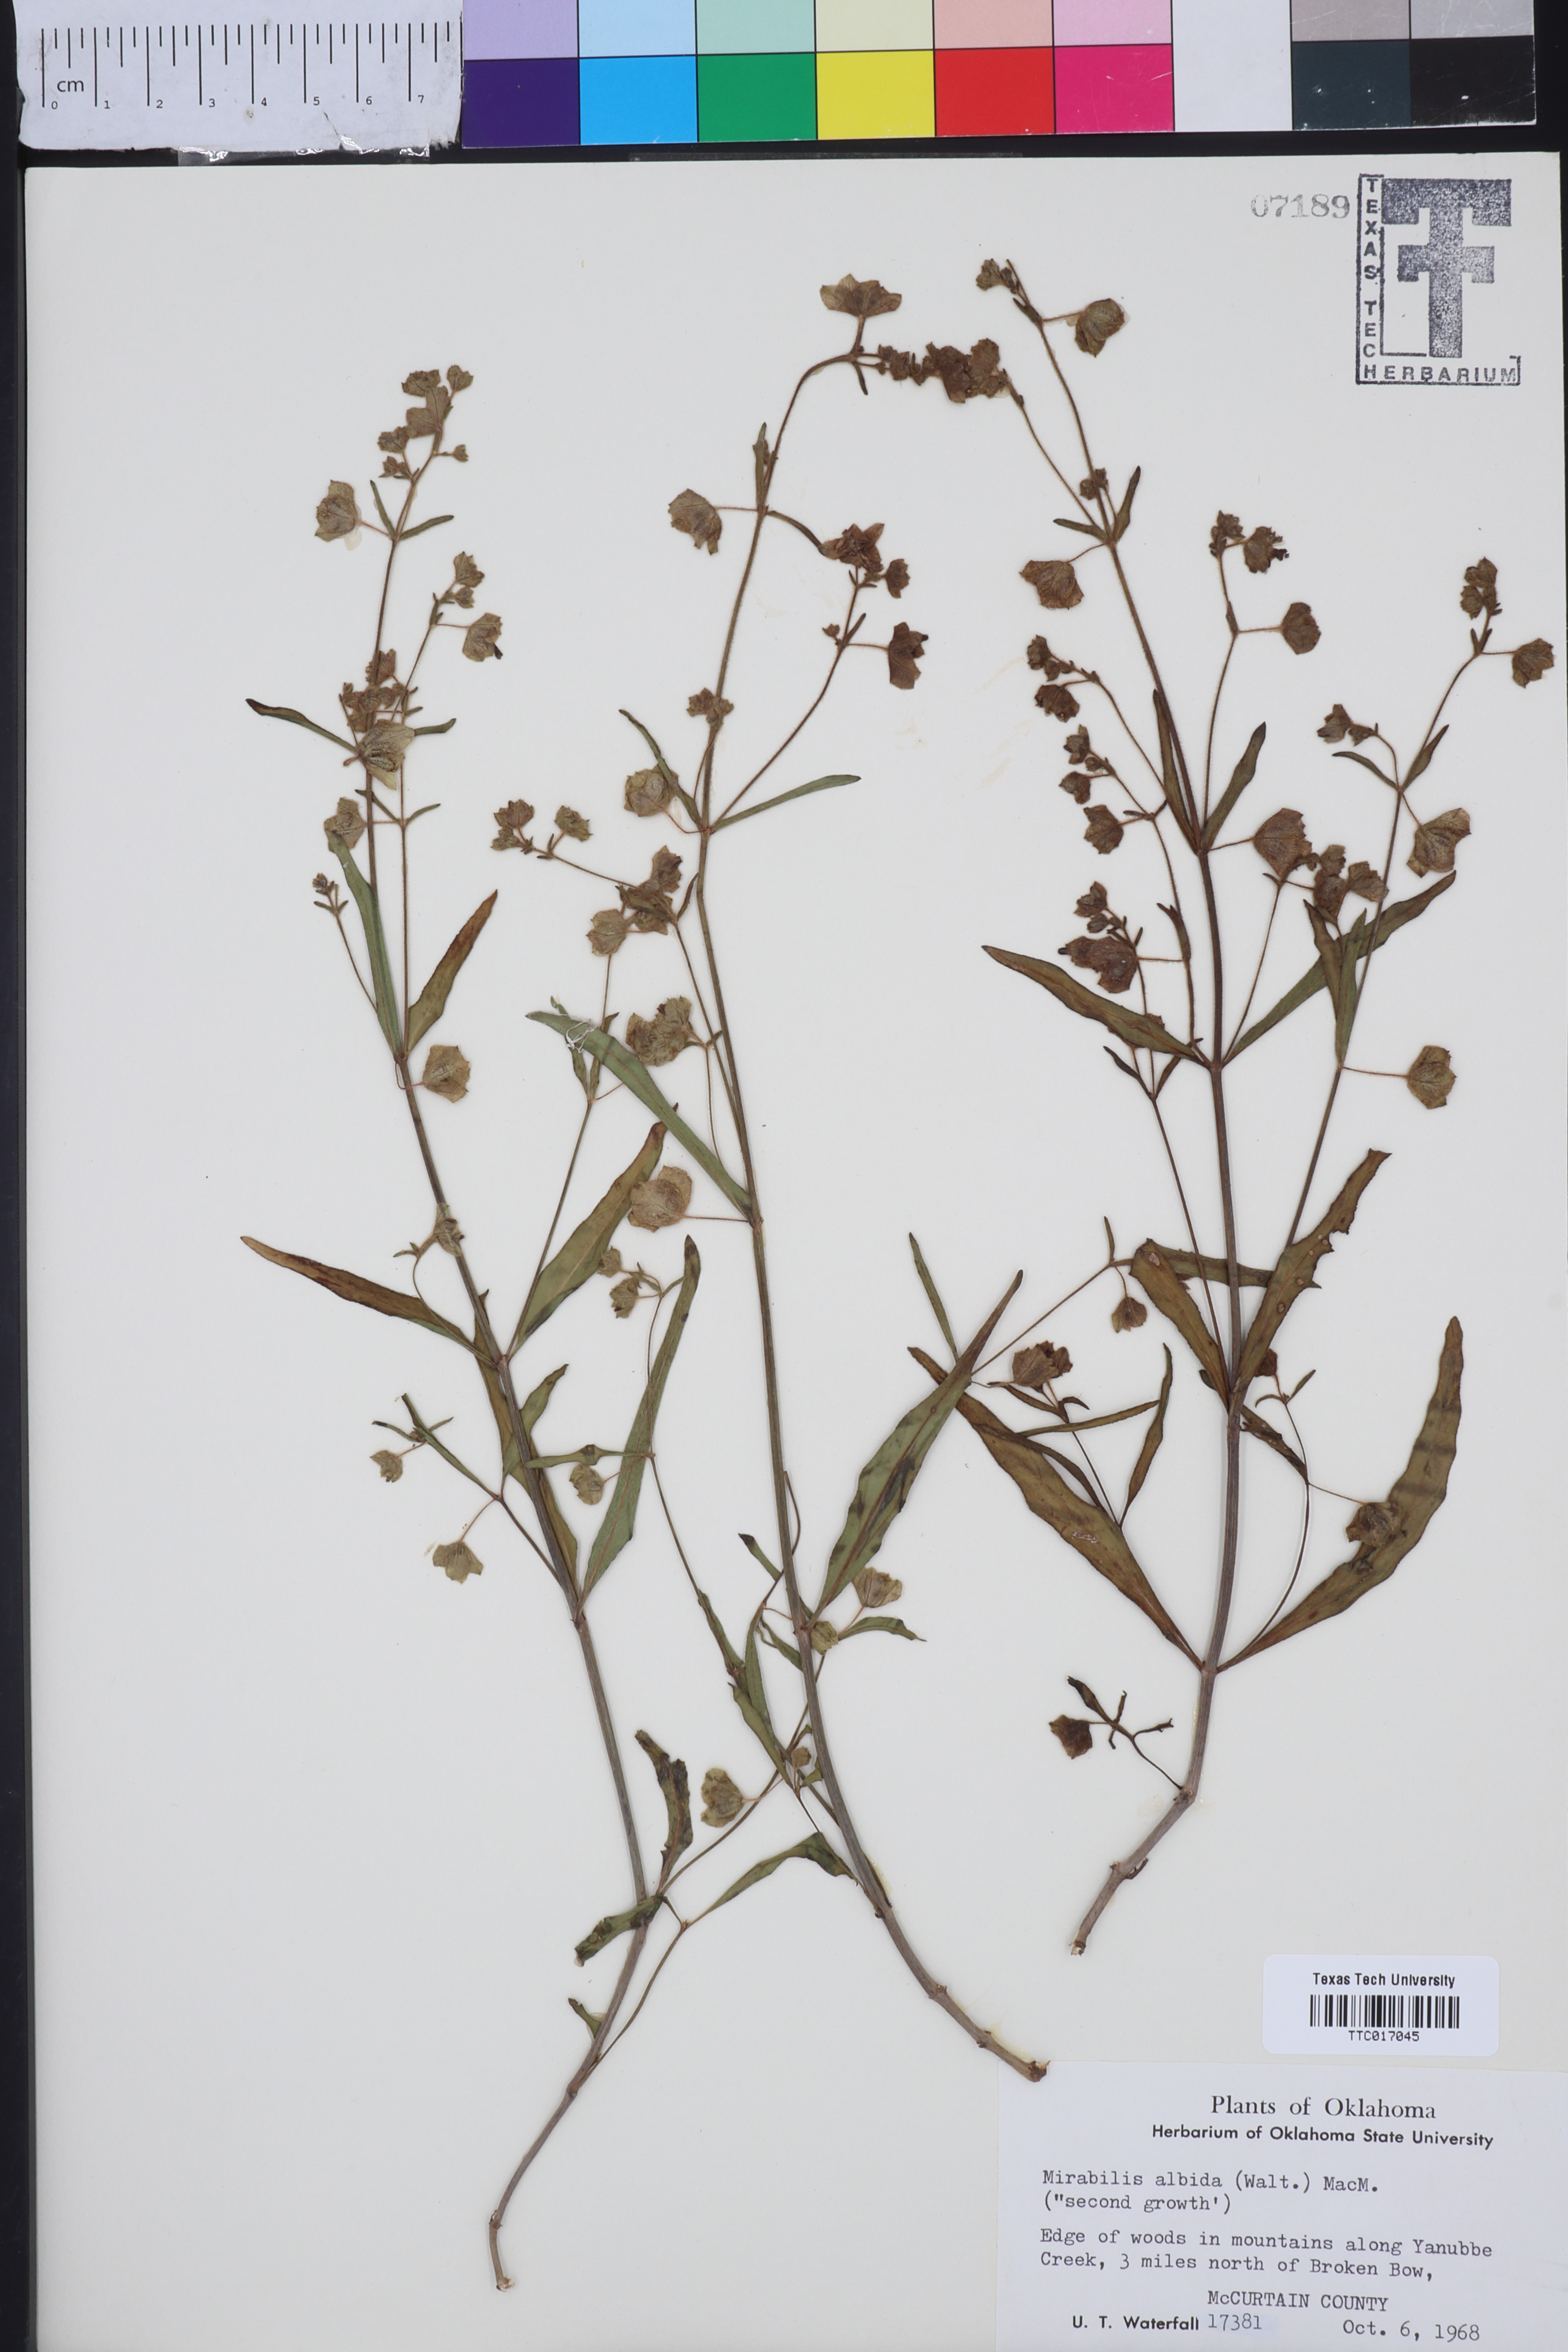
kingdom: Plantae
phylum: Tracheophyta
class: Magnoliopsida
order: Caryophyllales
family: Nyctaginaceae
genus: Mirabilis
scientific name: Mirabilis albida
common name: Hairy four-o'clock
